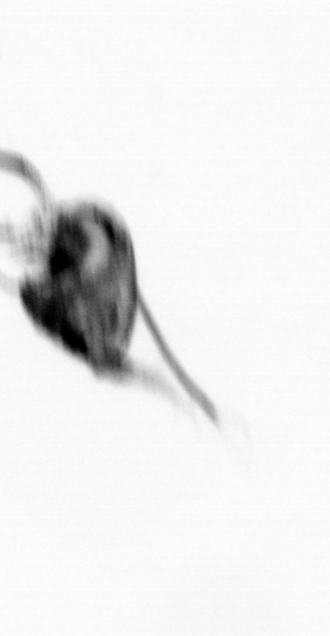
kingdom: Animalia
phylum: Arthropoda
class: Copepoda
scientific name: Copepoda
